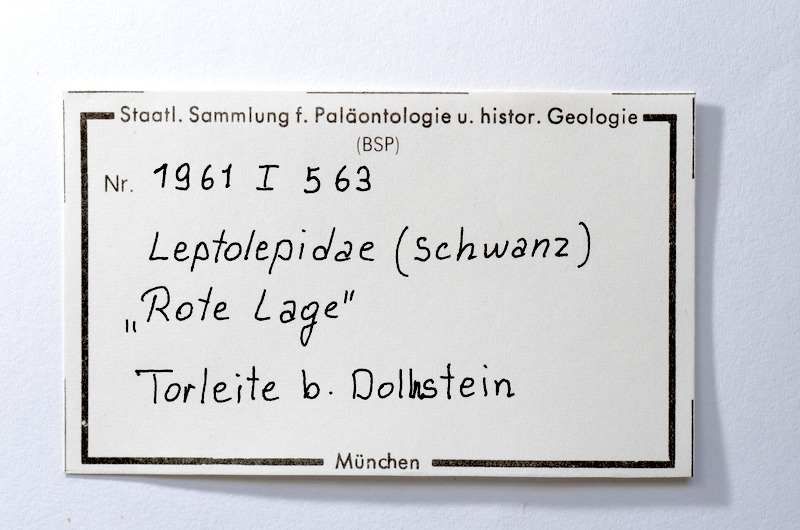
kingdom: Animalia
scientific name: Animalia
